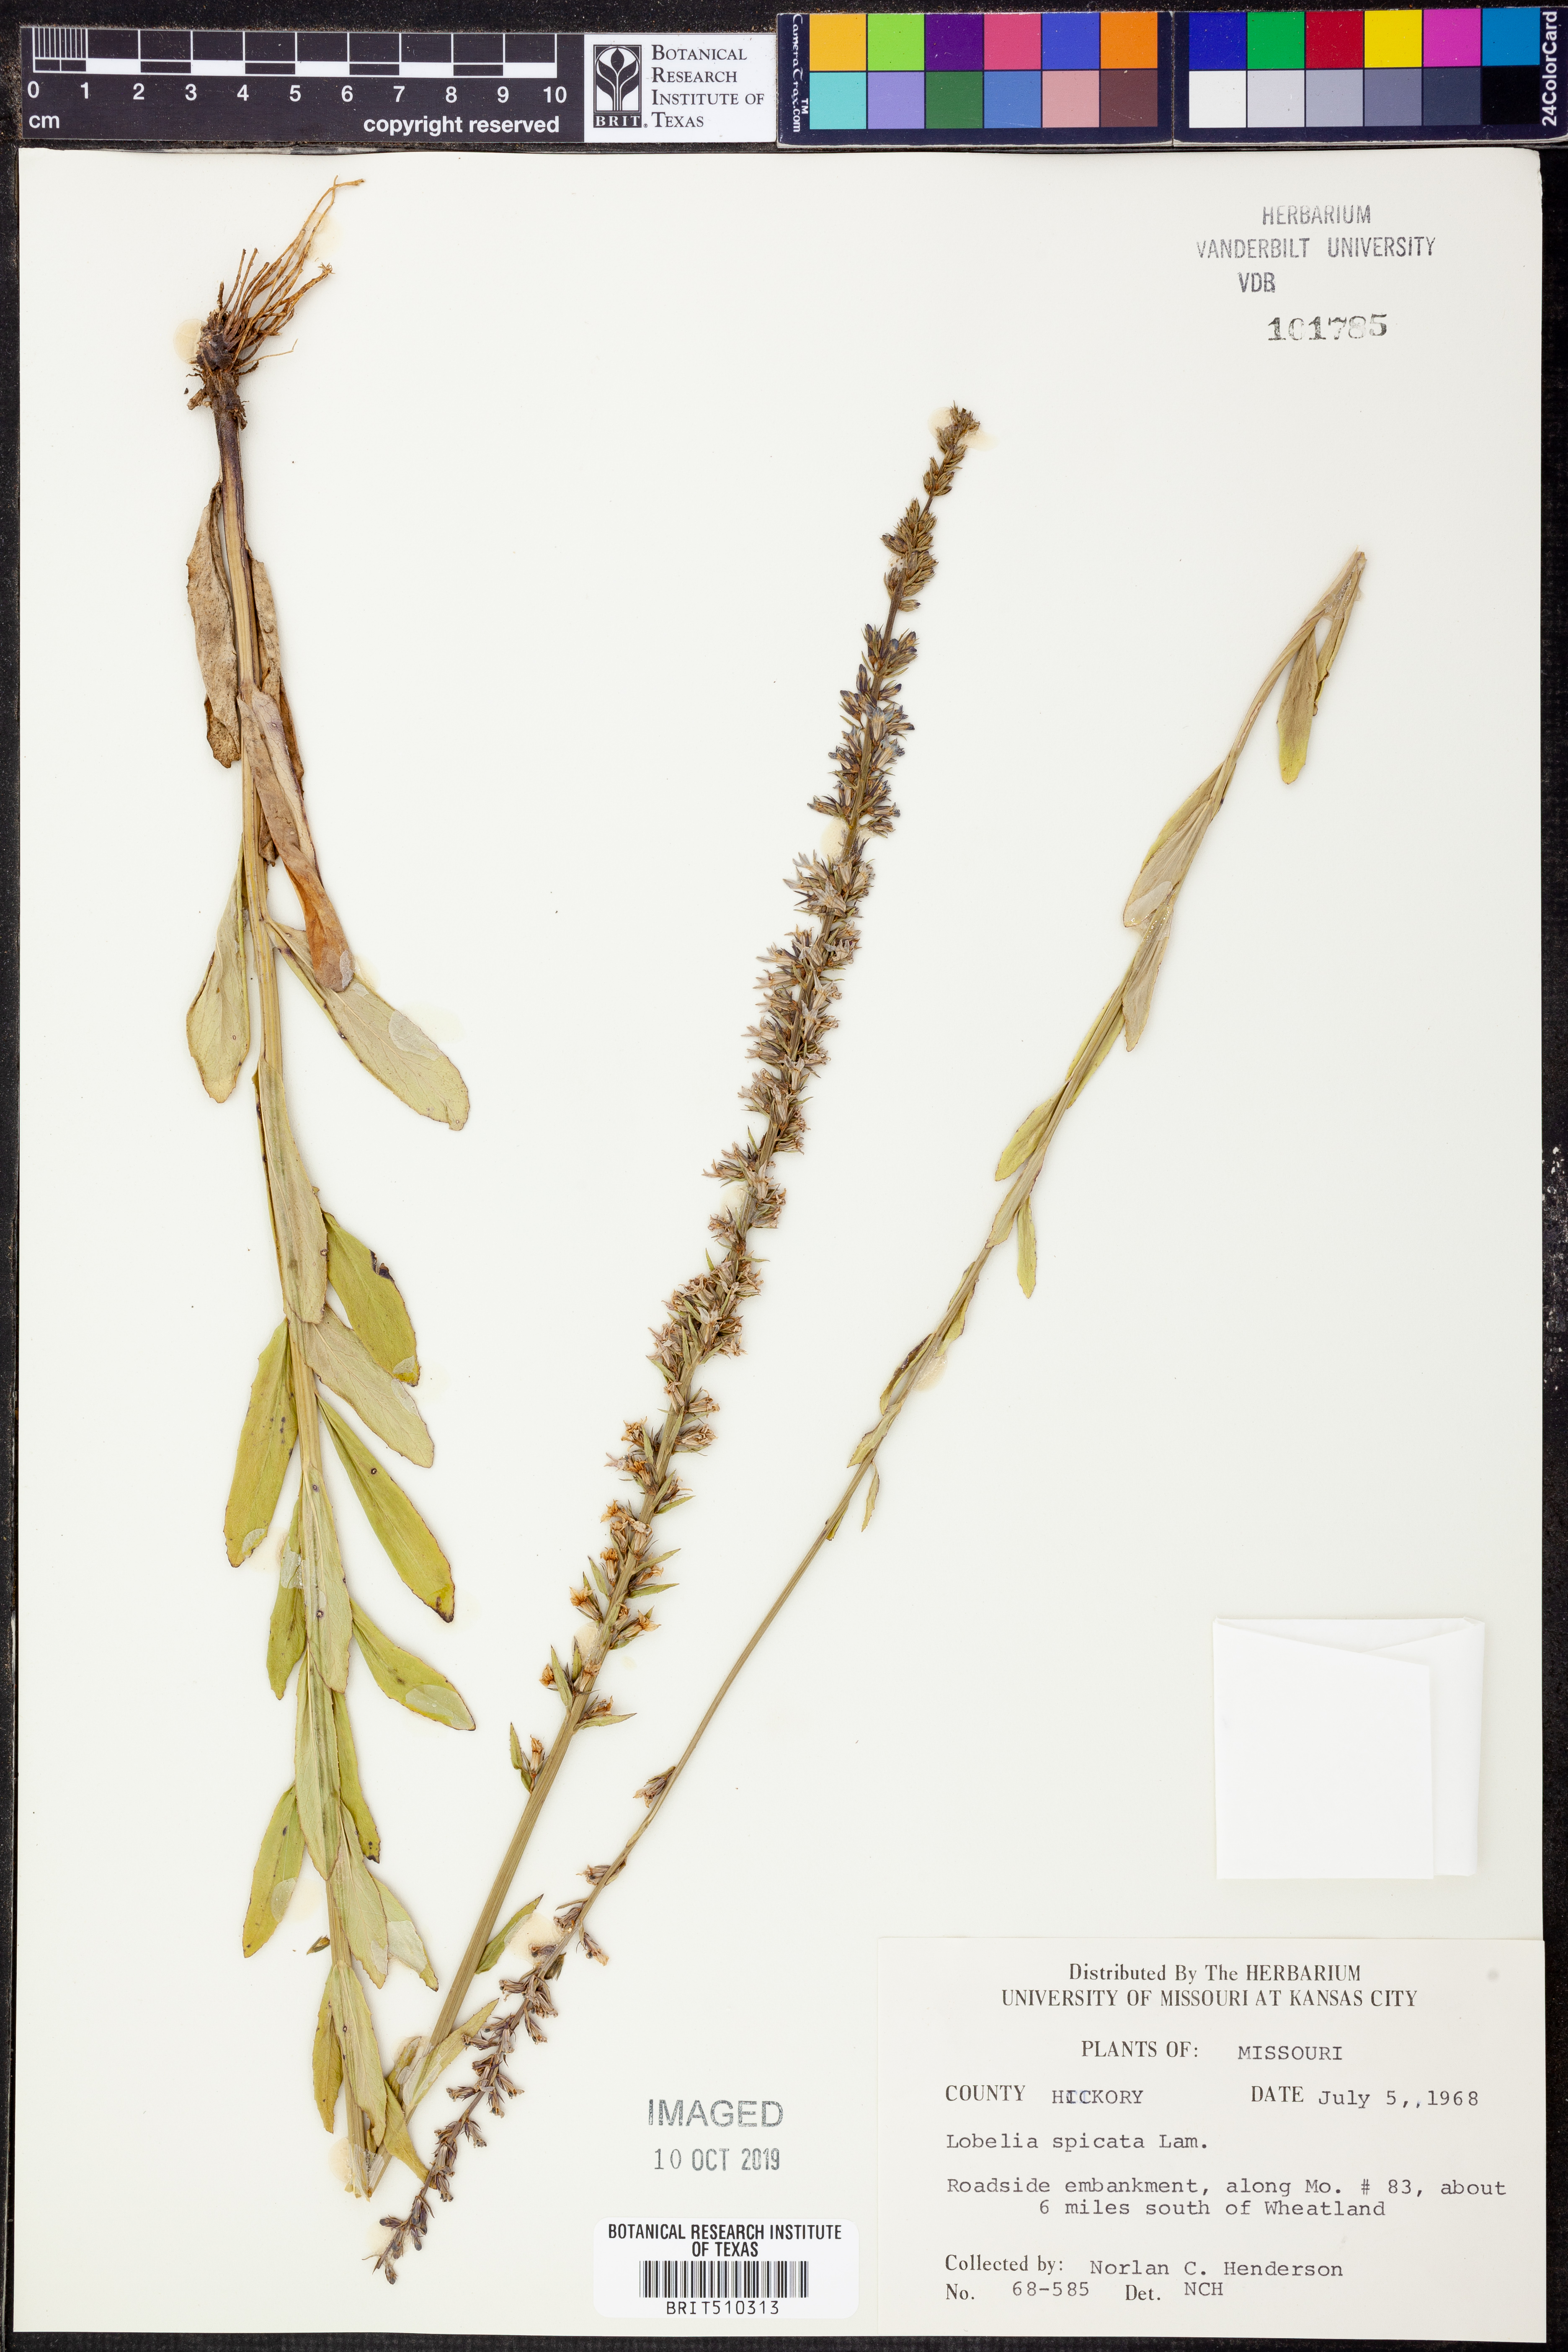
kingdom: Plantae
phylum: Tracheophyta
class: Magnoliopsida
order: Asterales
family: Campanulaceae
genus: Lobelia
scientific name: Lobelia spicata
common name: Pale-spike lobelia
